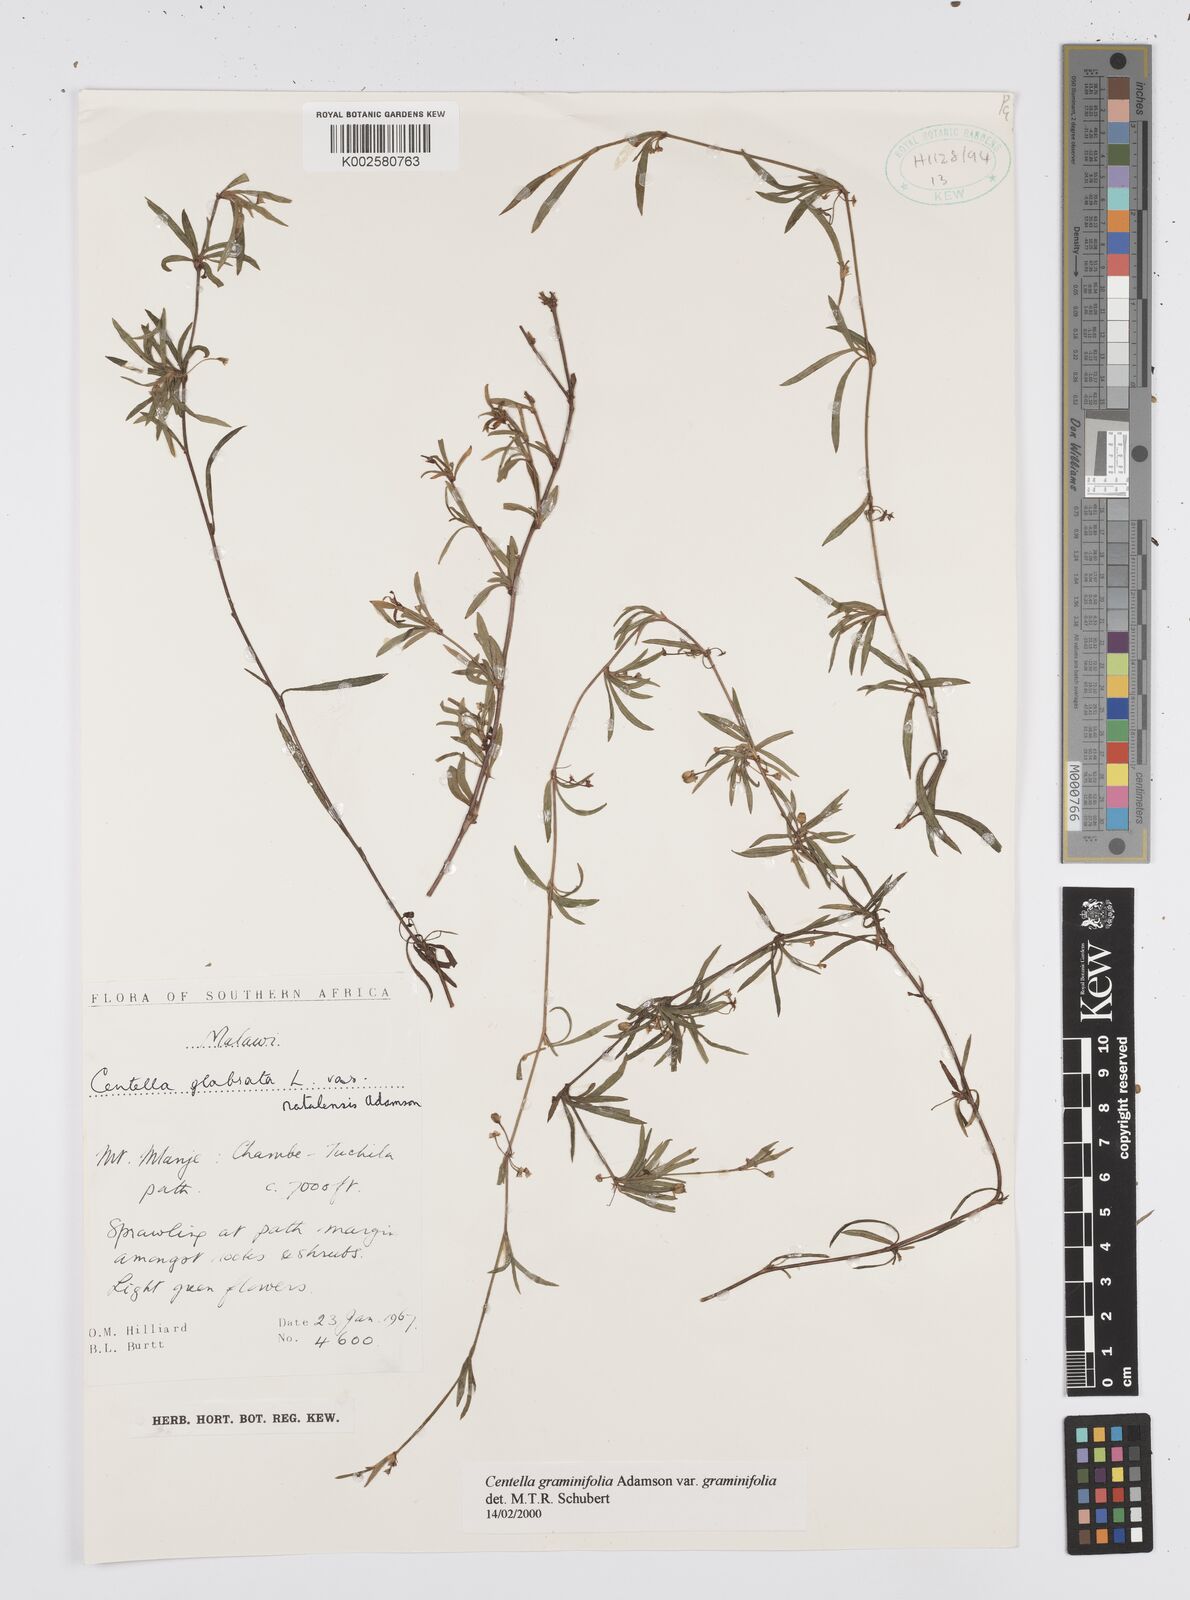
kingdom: Plantae
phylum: Tracheophyta
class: Magnoliopsida
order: Apiales
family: Apiaceae
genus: Centella
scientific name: Centella graminifolia
